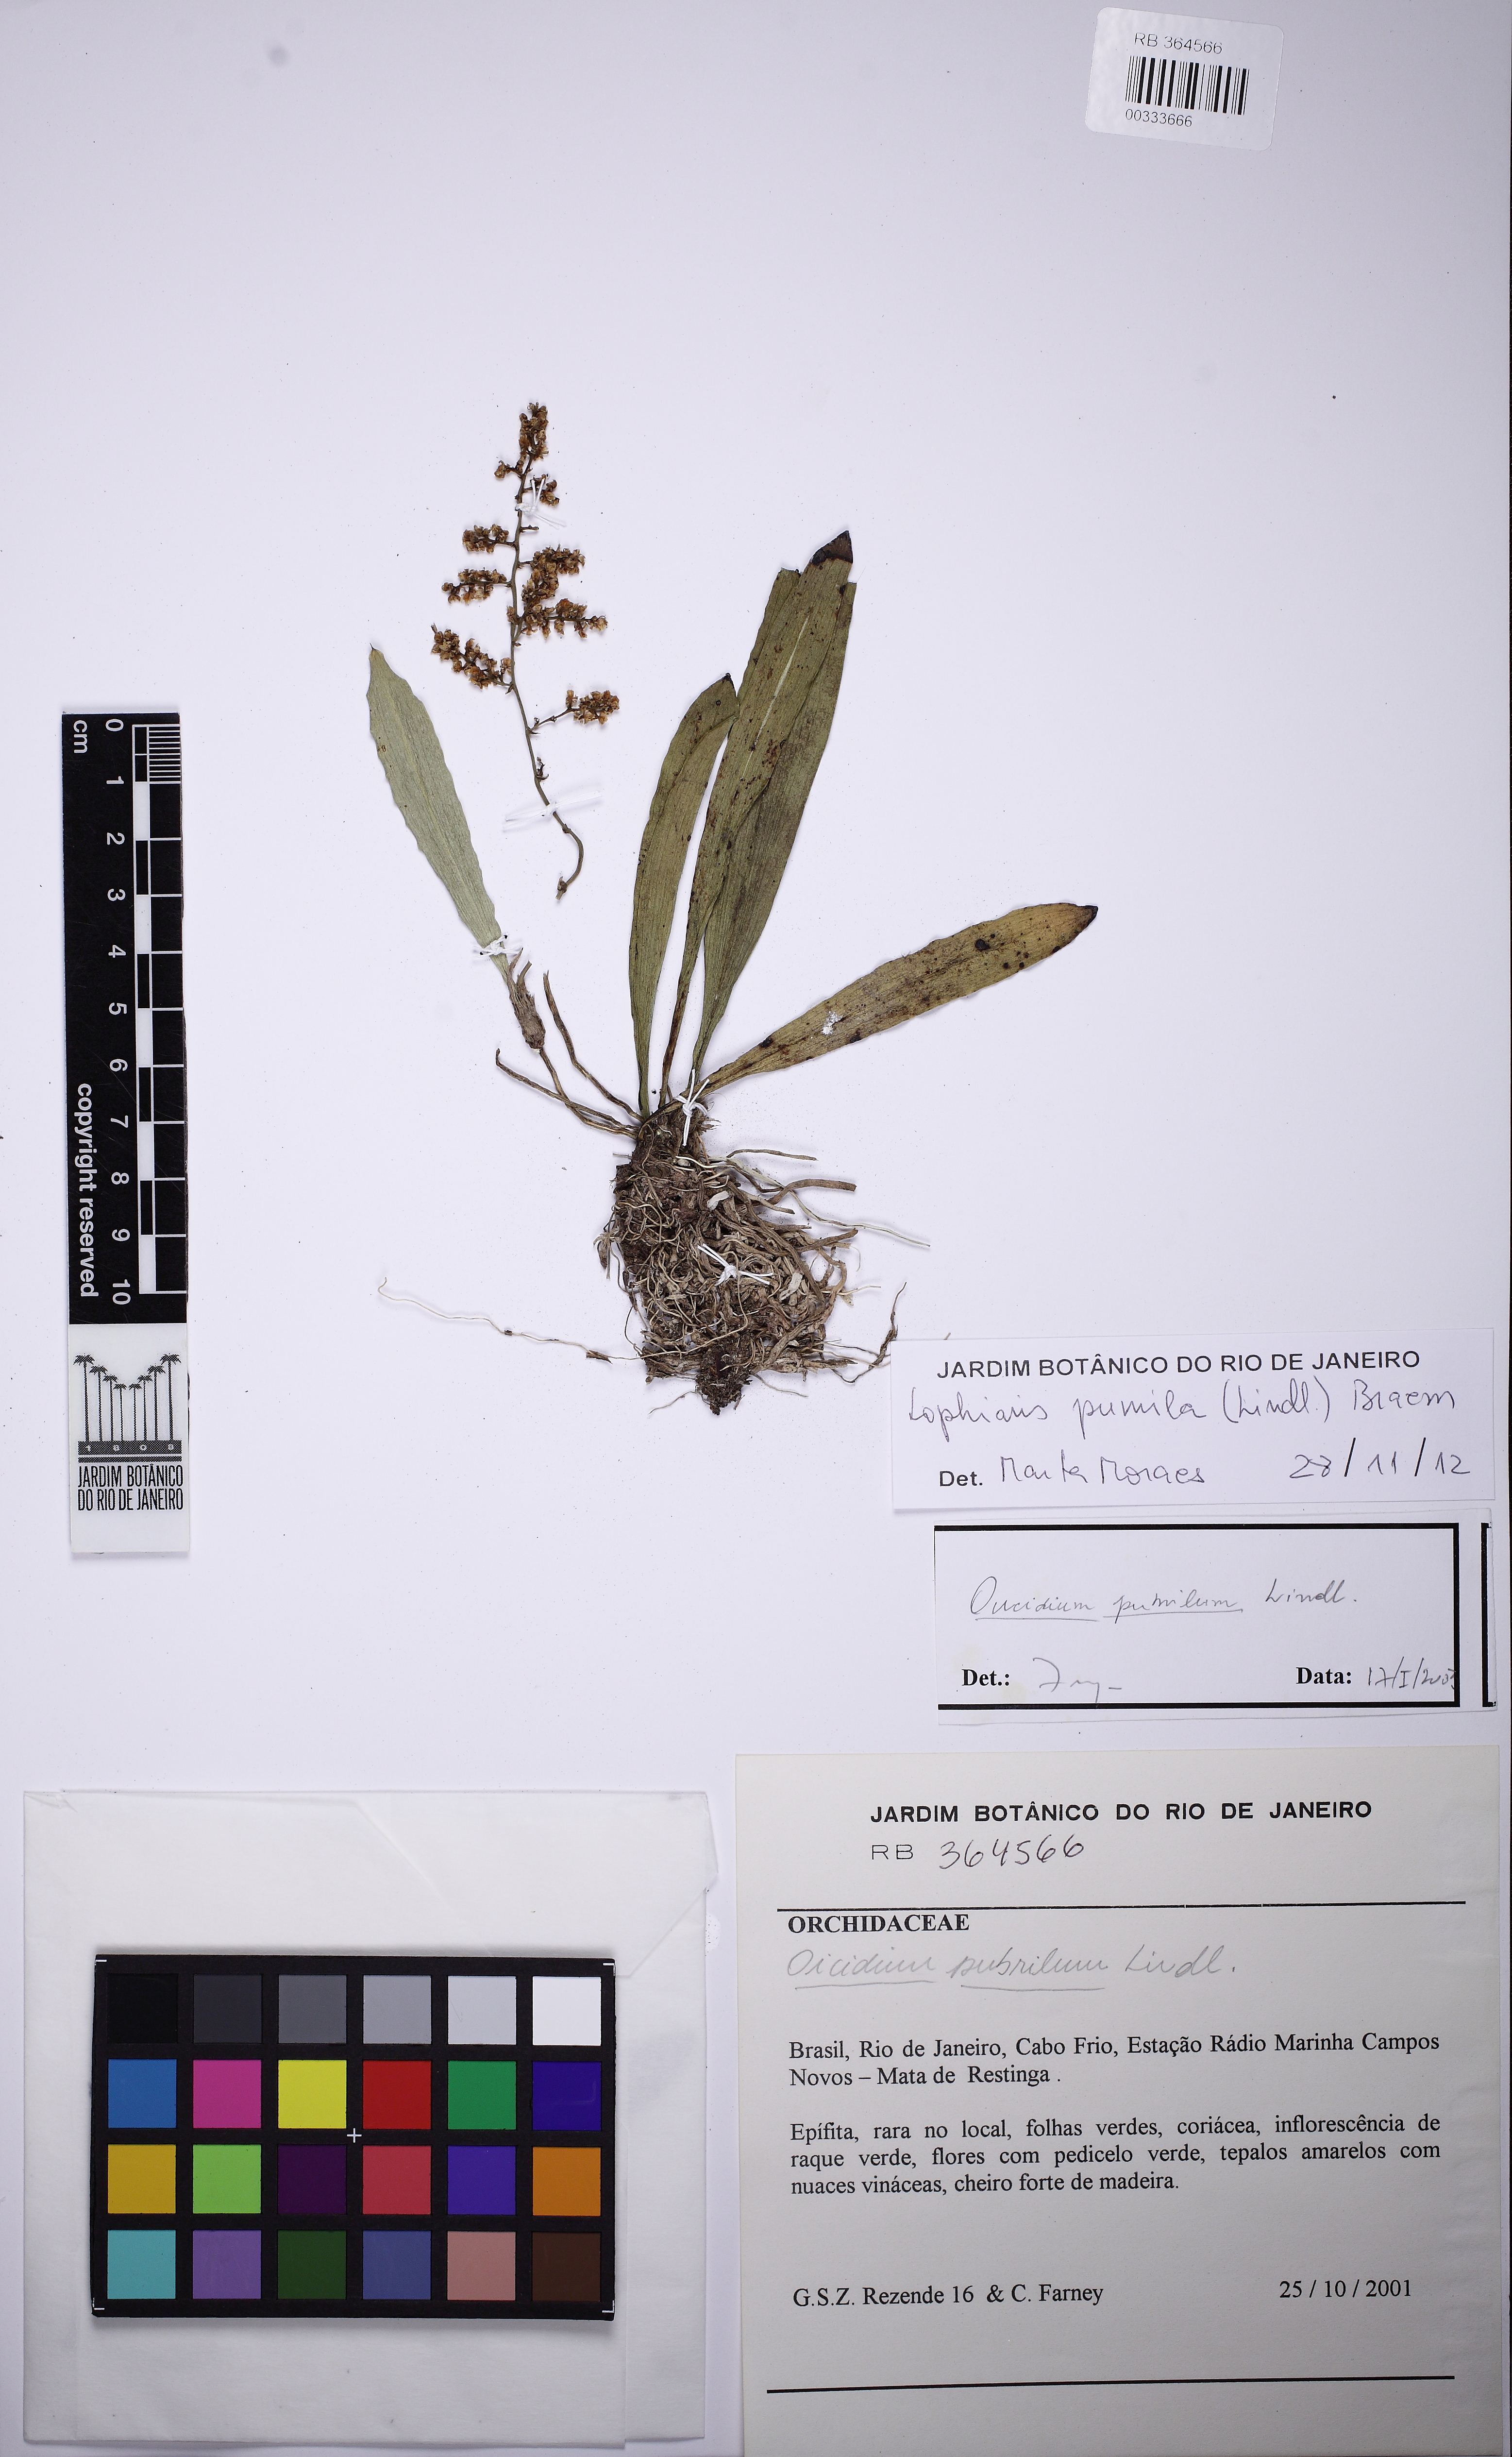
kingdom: Plantae
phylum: Tracheophyta
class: Liliopsida
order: Asparagales
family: Orchidaceae
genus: Trichocentrum
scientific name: Trichocentrum pumilum
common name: Mule-ear orchid
